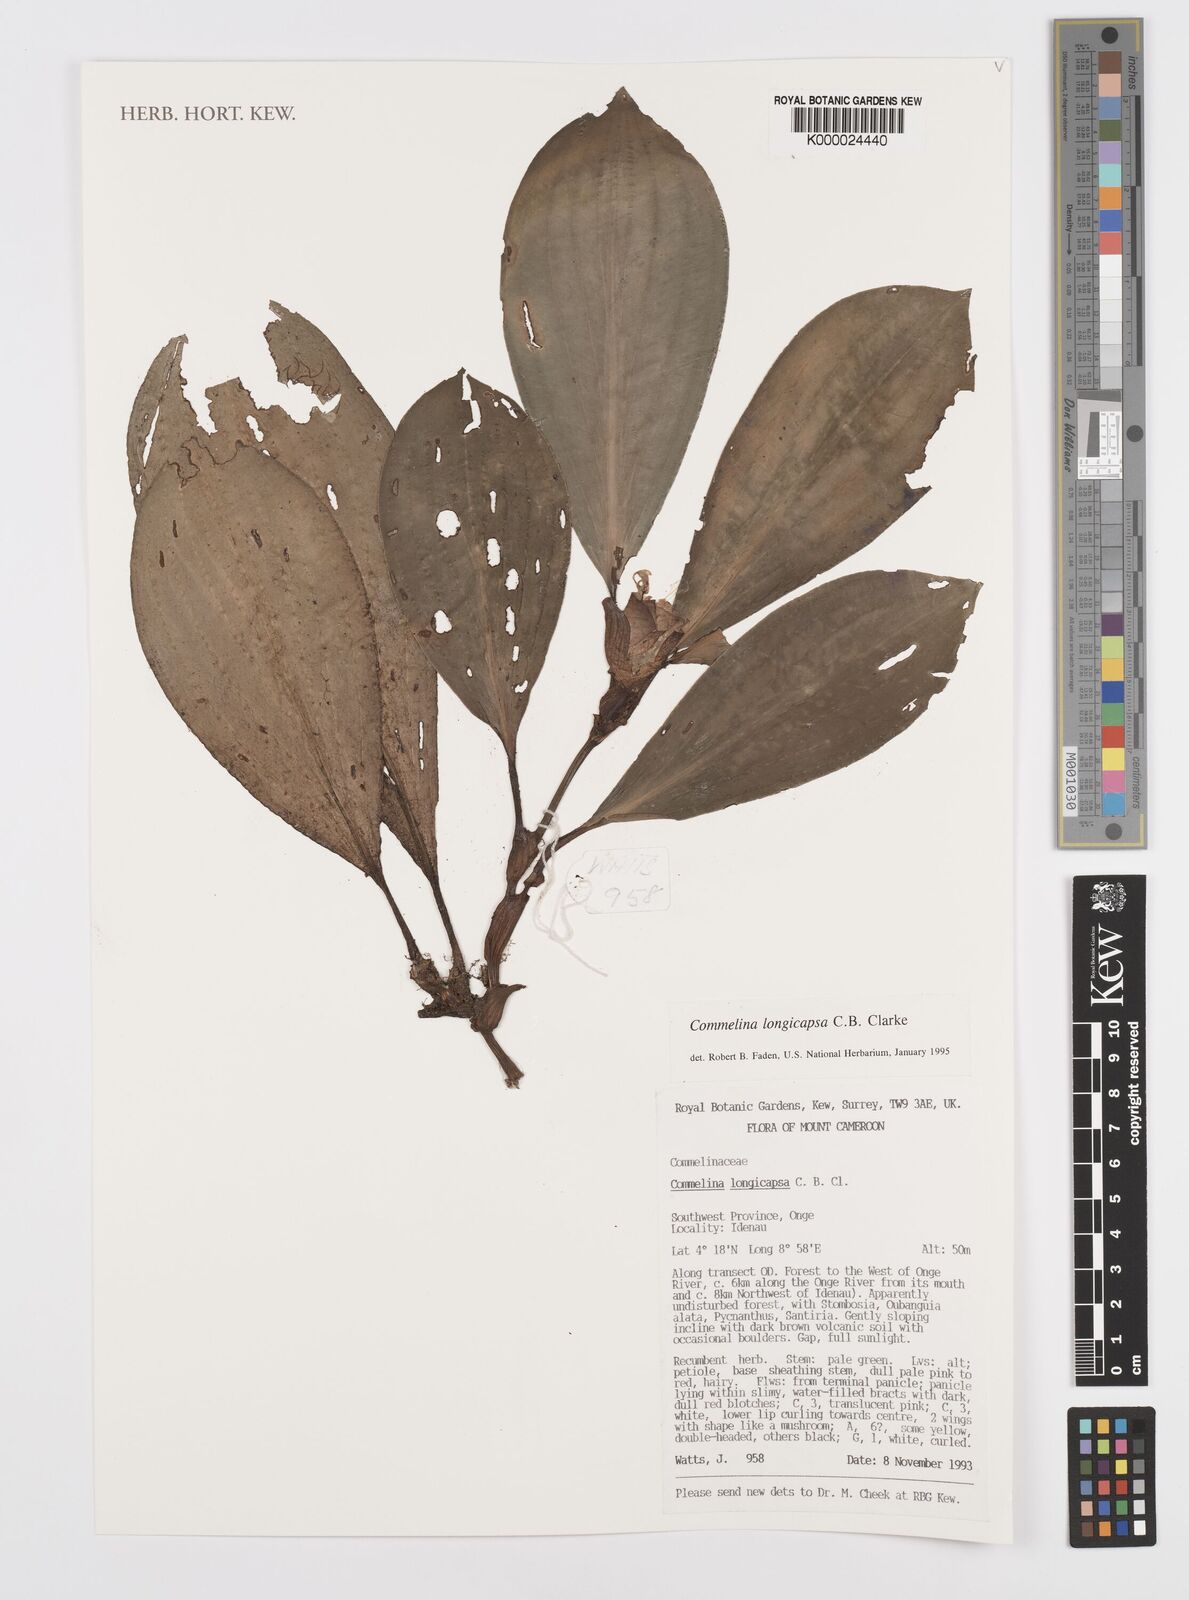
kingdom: Plantae
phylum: Tracheophyta
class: Liliopsida
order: Commelinales
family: Commelinaceae
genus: Commelina
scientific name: Commelina longicapsa
